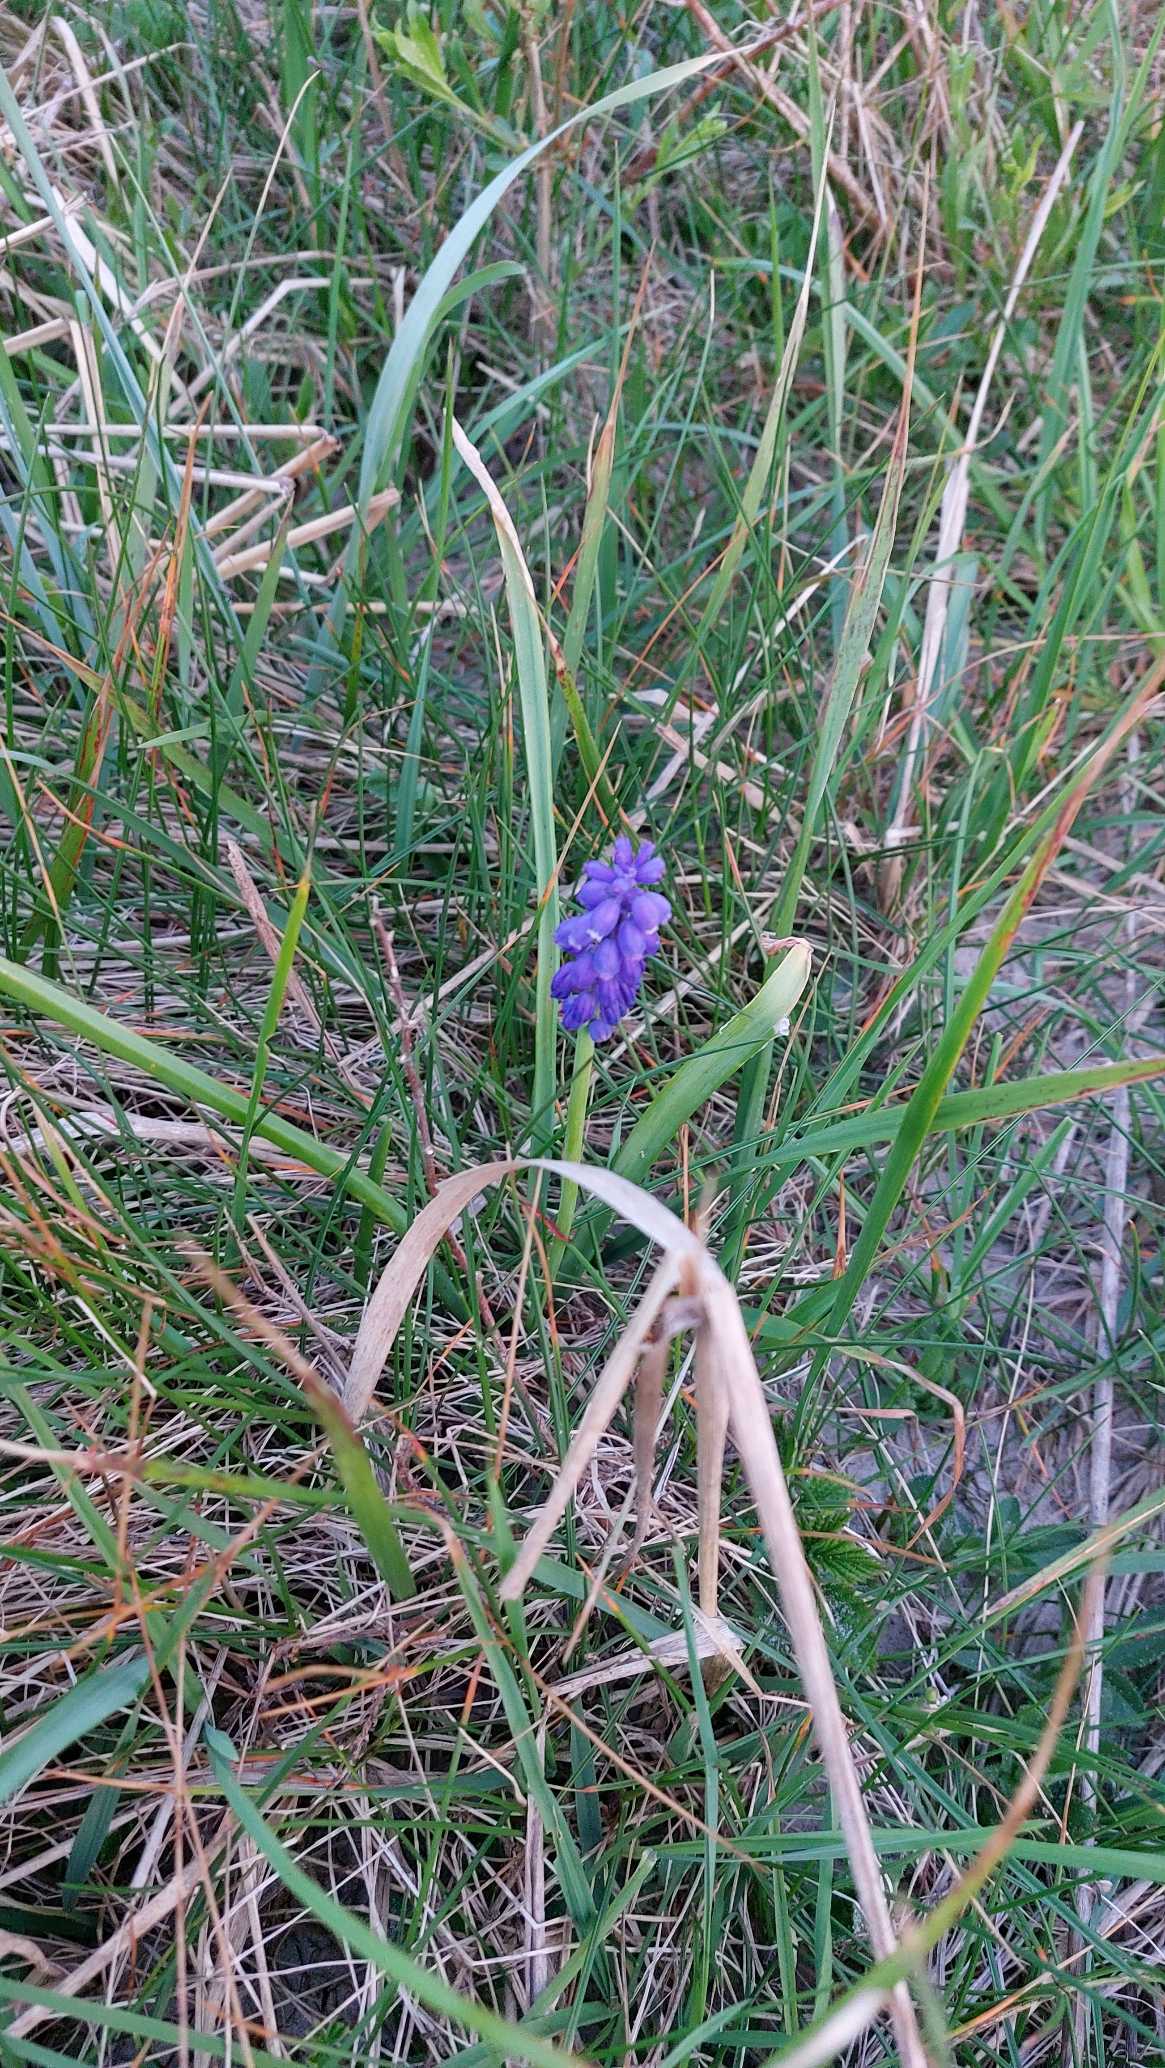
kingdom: Plantae
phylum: Tracheophyta
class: Liliopsida
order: Asparagales
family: Asparagaceae
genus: Muscari
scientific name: Muscari armeniacum
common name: Armensk perlehyacint
